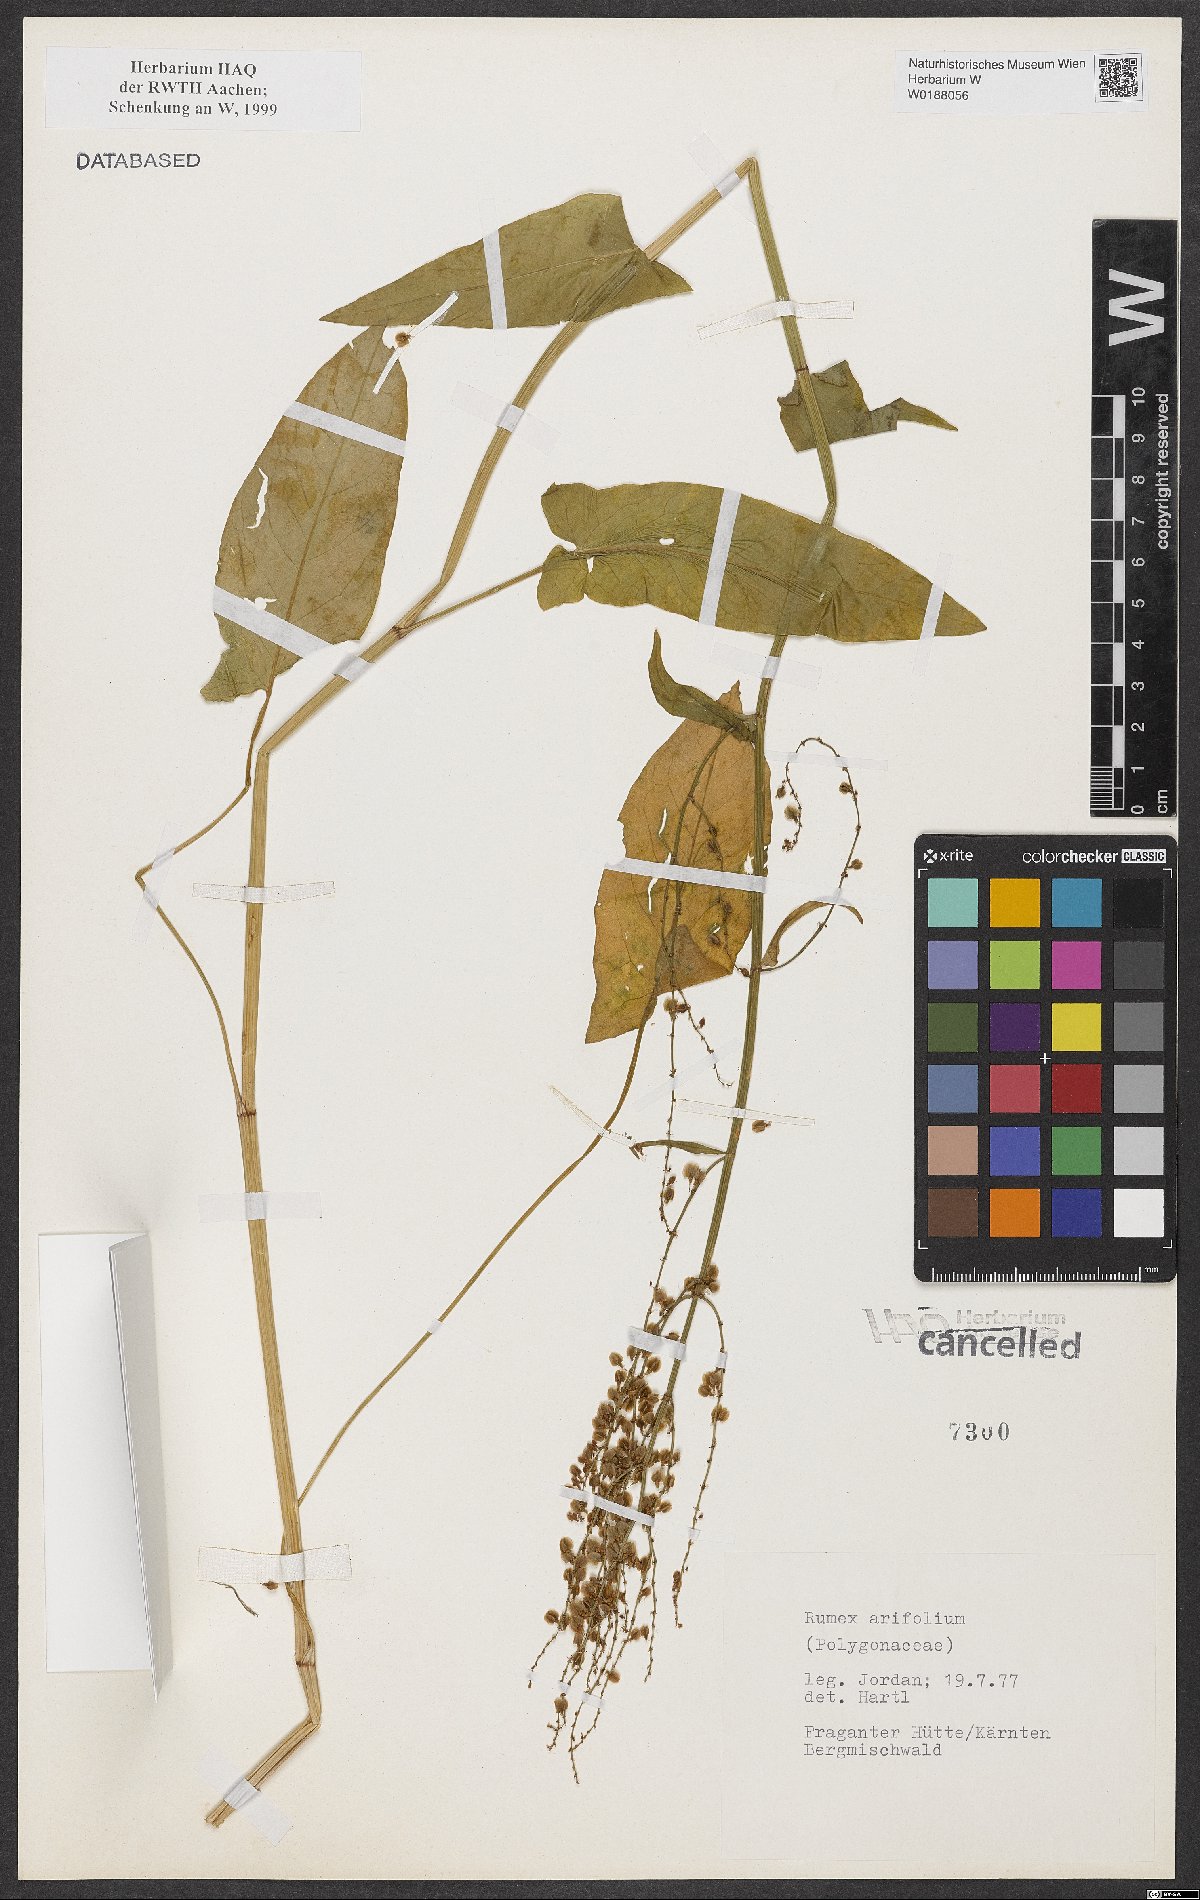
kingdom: Plantae
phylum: Tracheophyta
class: Magnoliopsida
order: Caryophyllales
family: Polygonaceae
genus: Rumex
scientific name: Rumex arifolius
